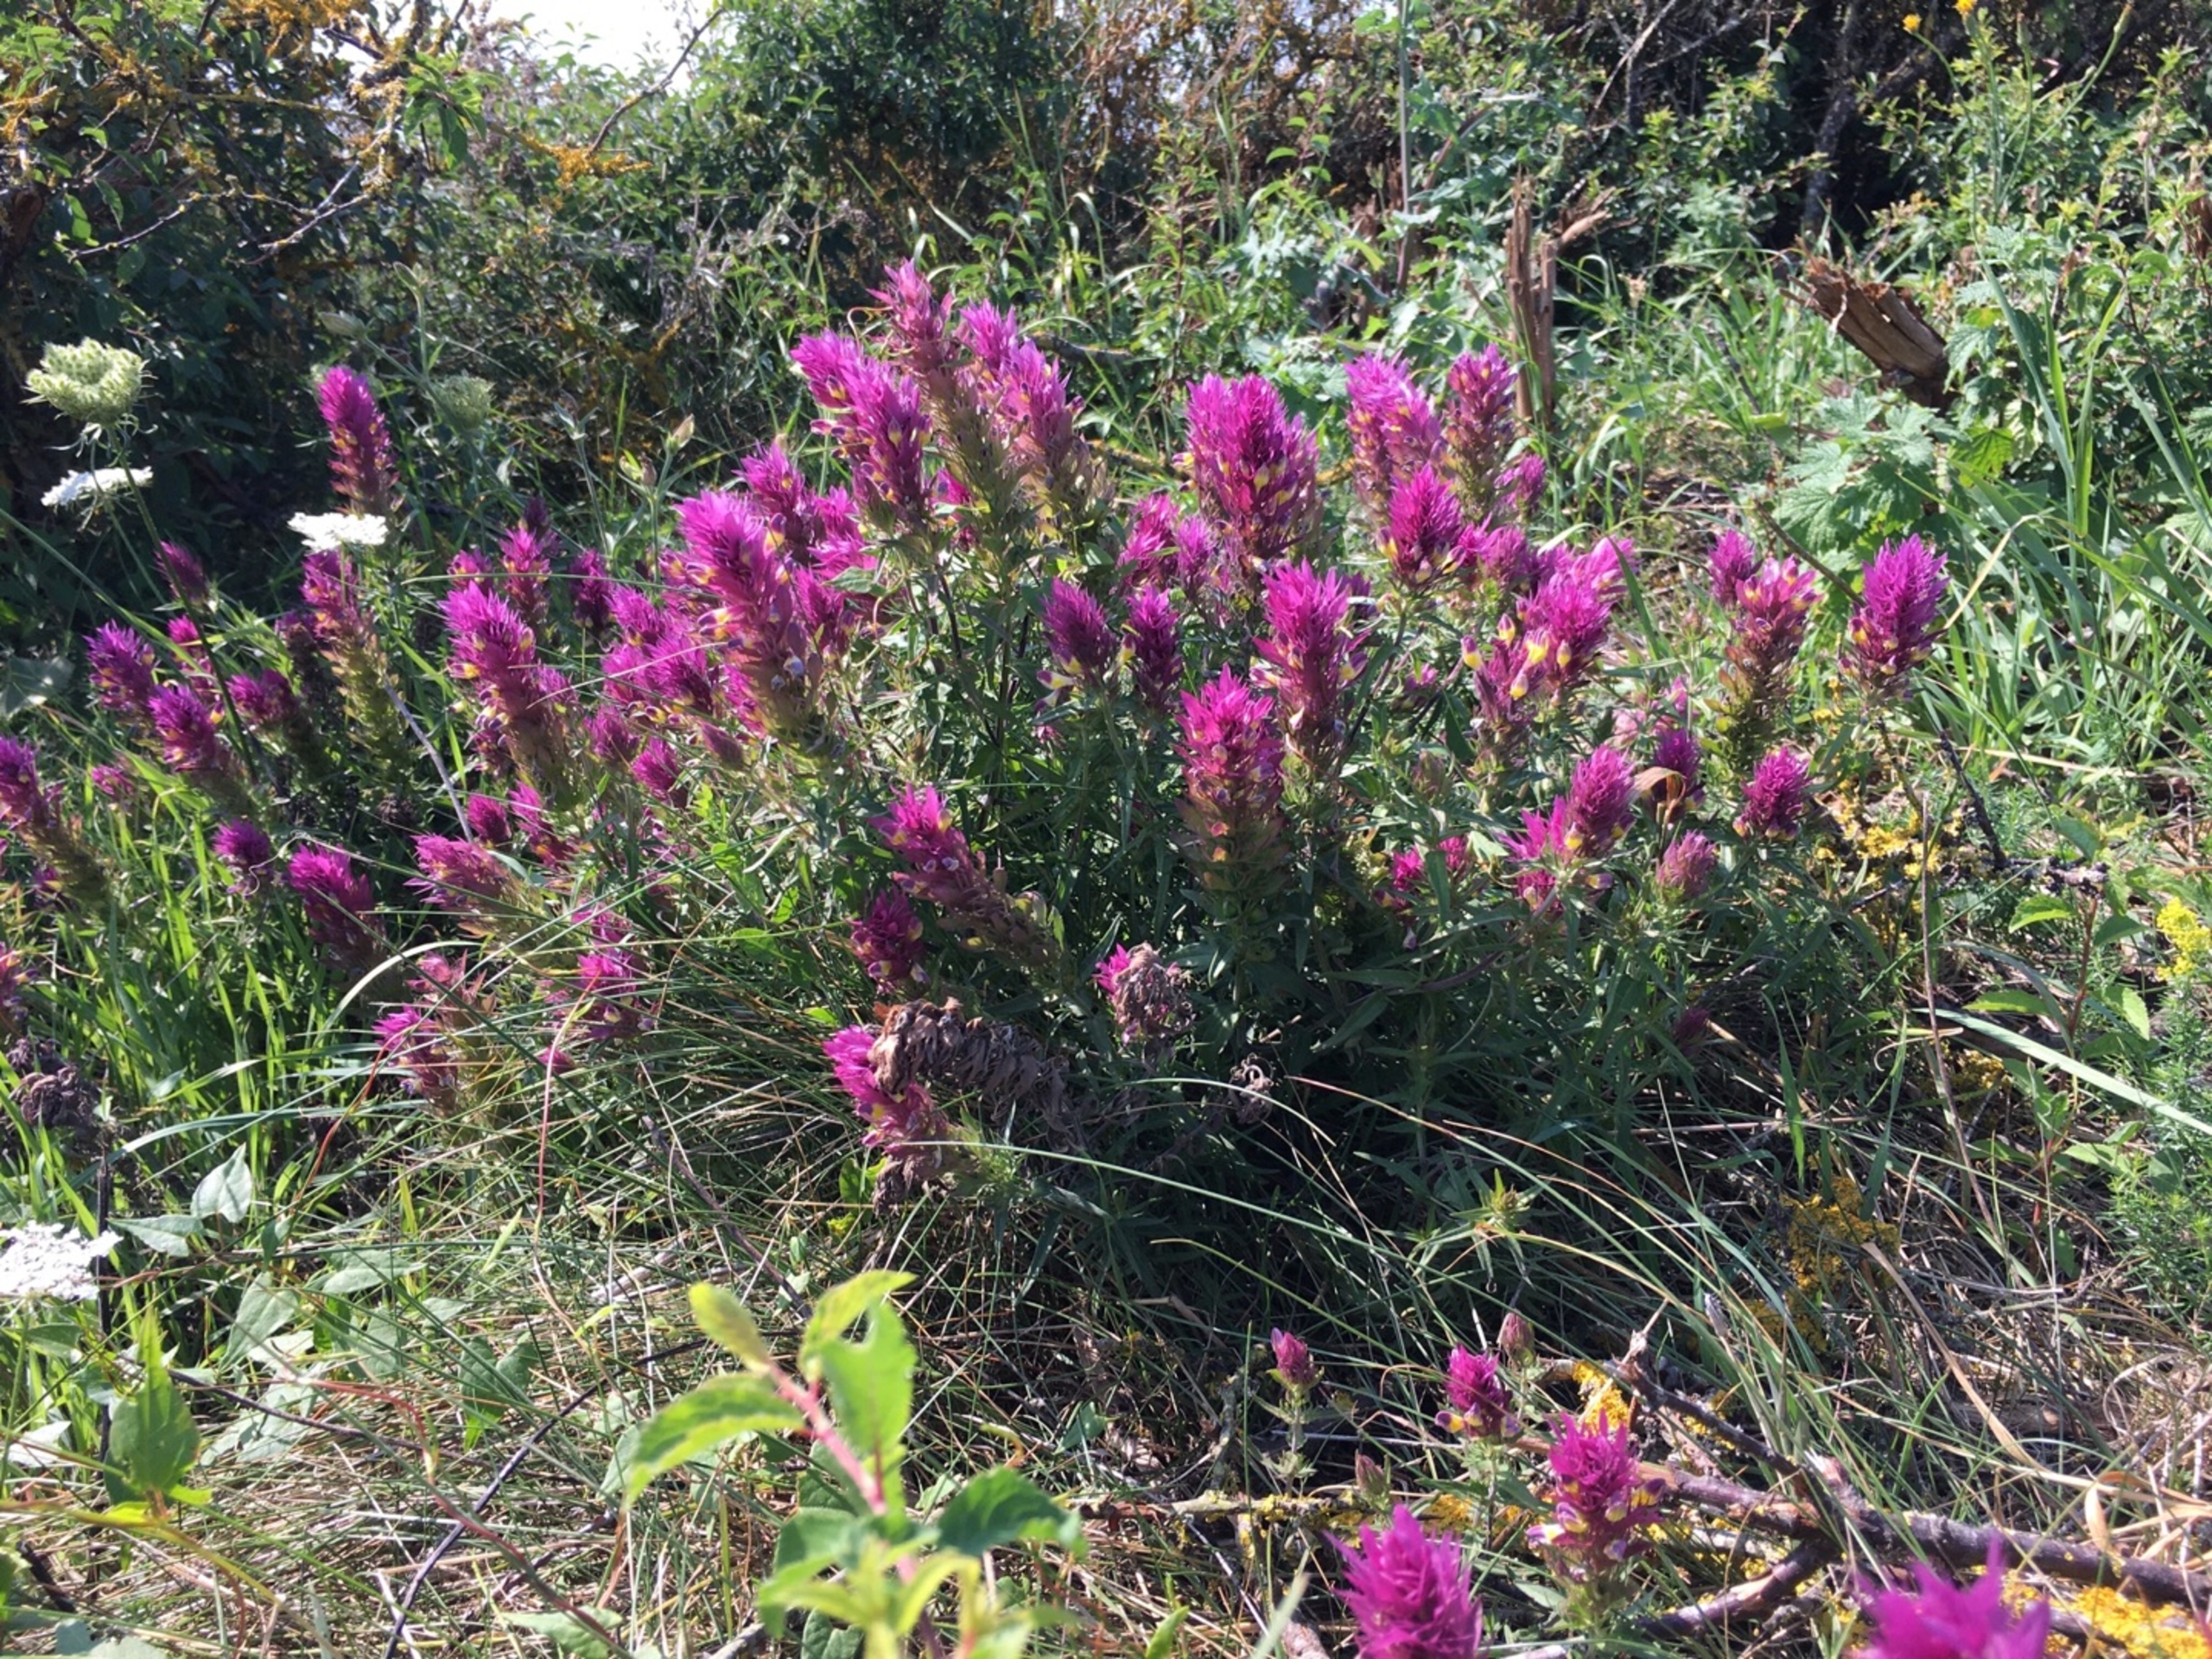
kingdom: Plantae
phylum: Tracheophyta
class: Magnoliopsida
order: Lamiales
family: Orobanchaceae
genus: Melampyrum
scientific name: Melampyrum arvense
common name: Ager-kohvede
